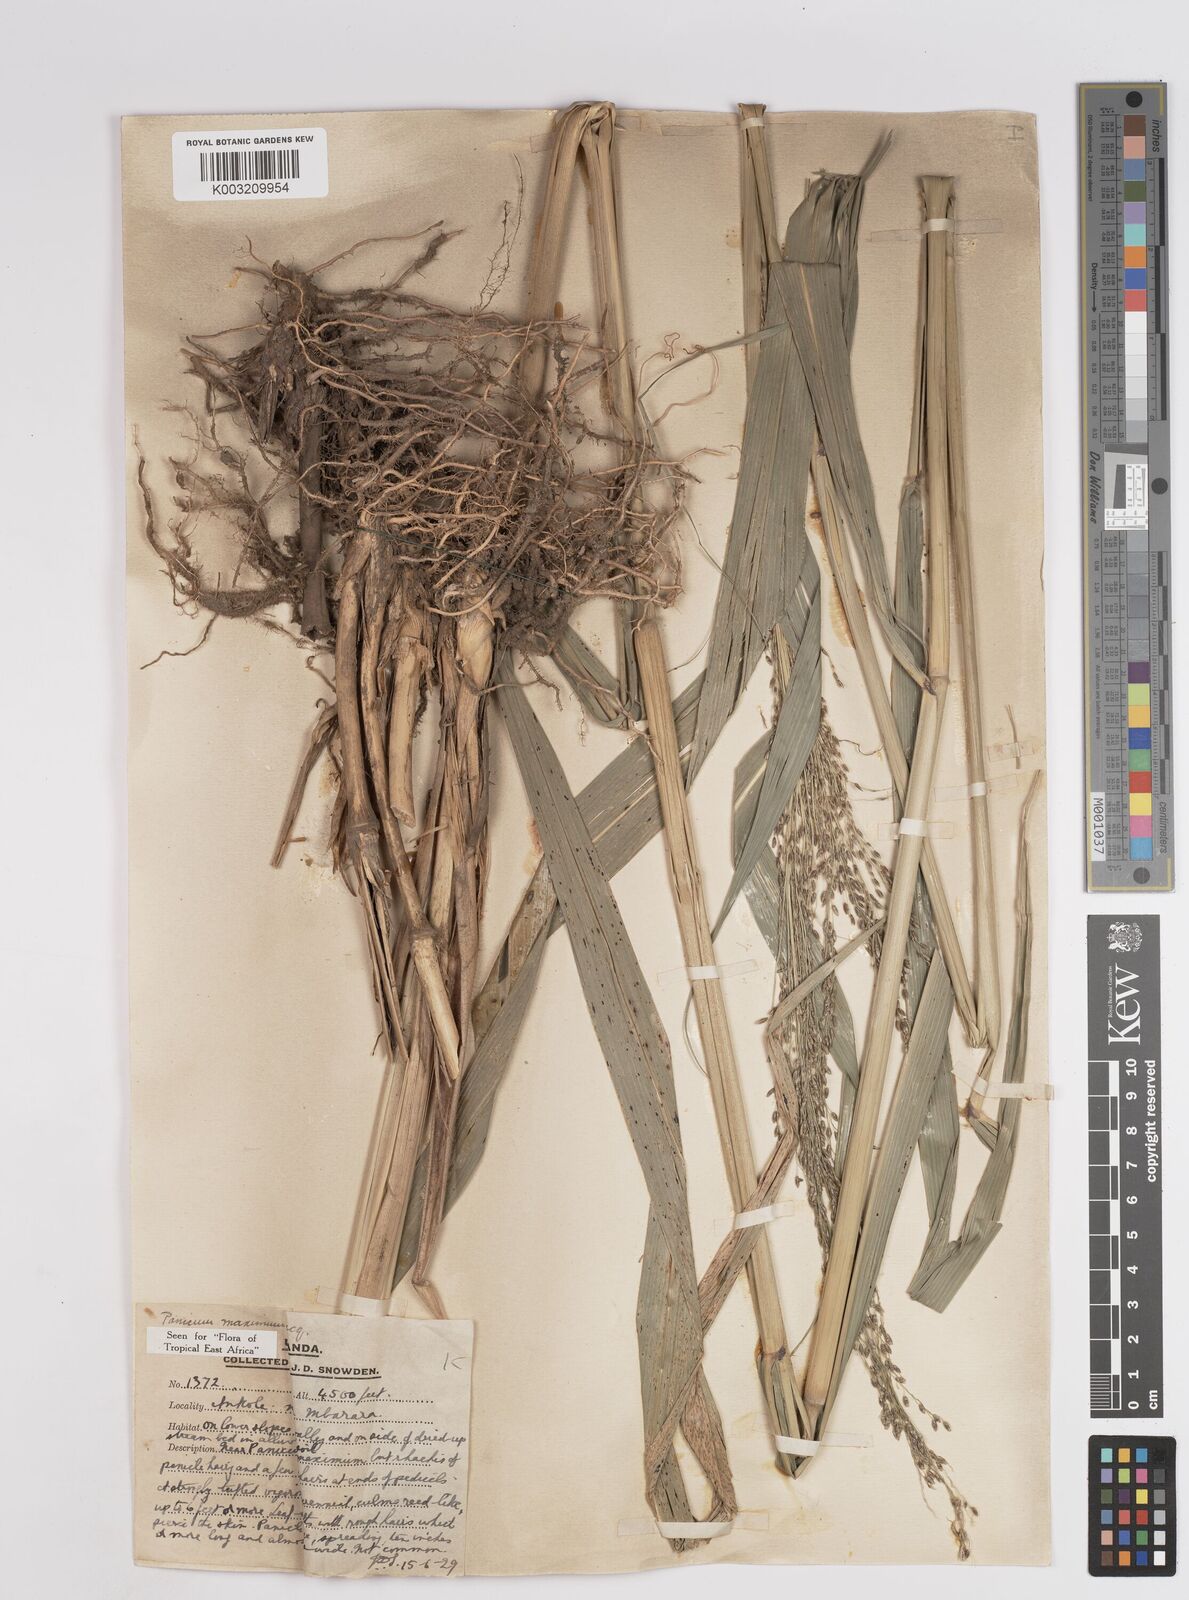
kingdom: Plantae
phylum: Tracheophyta
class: Liliopsida
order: Poales
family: Poaceae
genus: Megathyrsus
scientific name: Megathyrsus maximus
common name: Guineagrass
